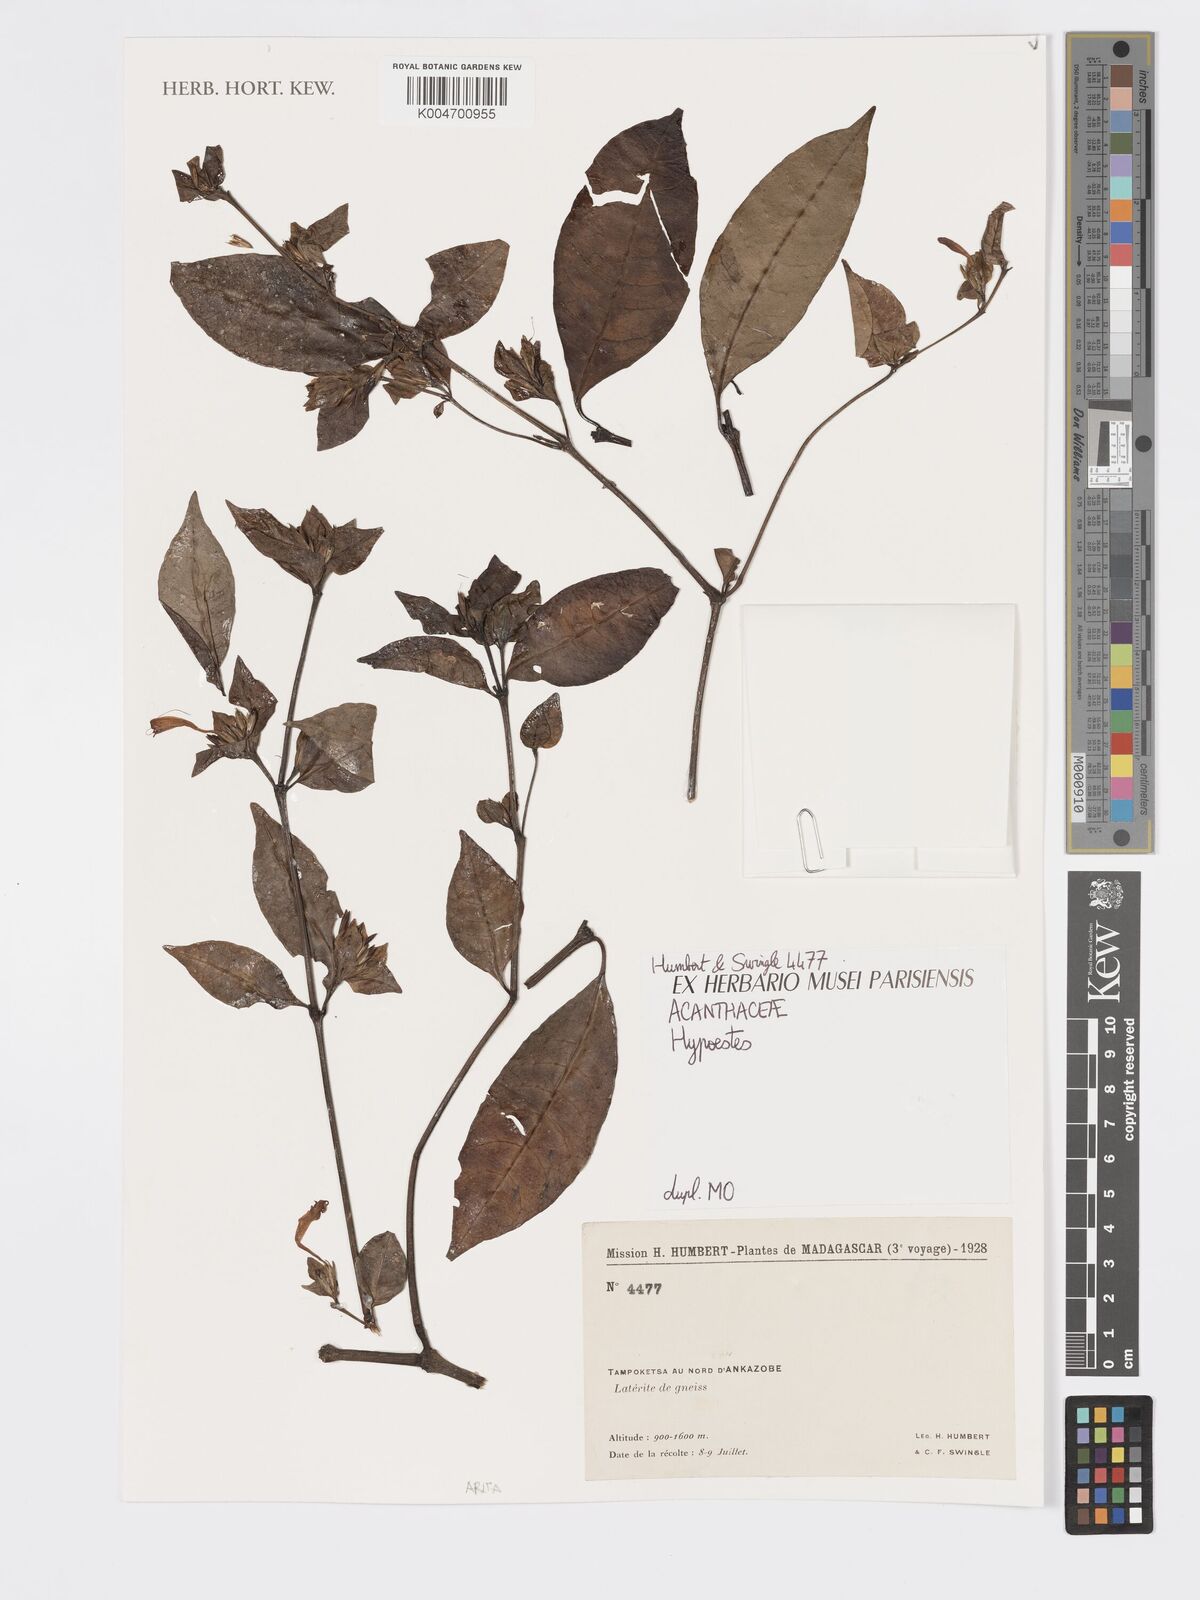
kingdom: Plantae
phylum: Tracheophyta
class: Magnoliopsida
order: Lamiales
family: Acanthaceae
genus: Hypoestes
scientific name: Hypoestes
